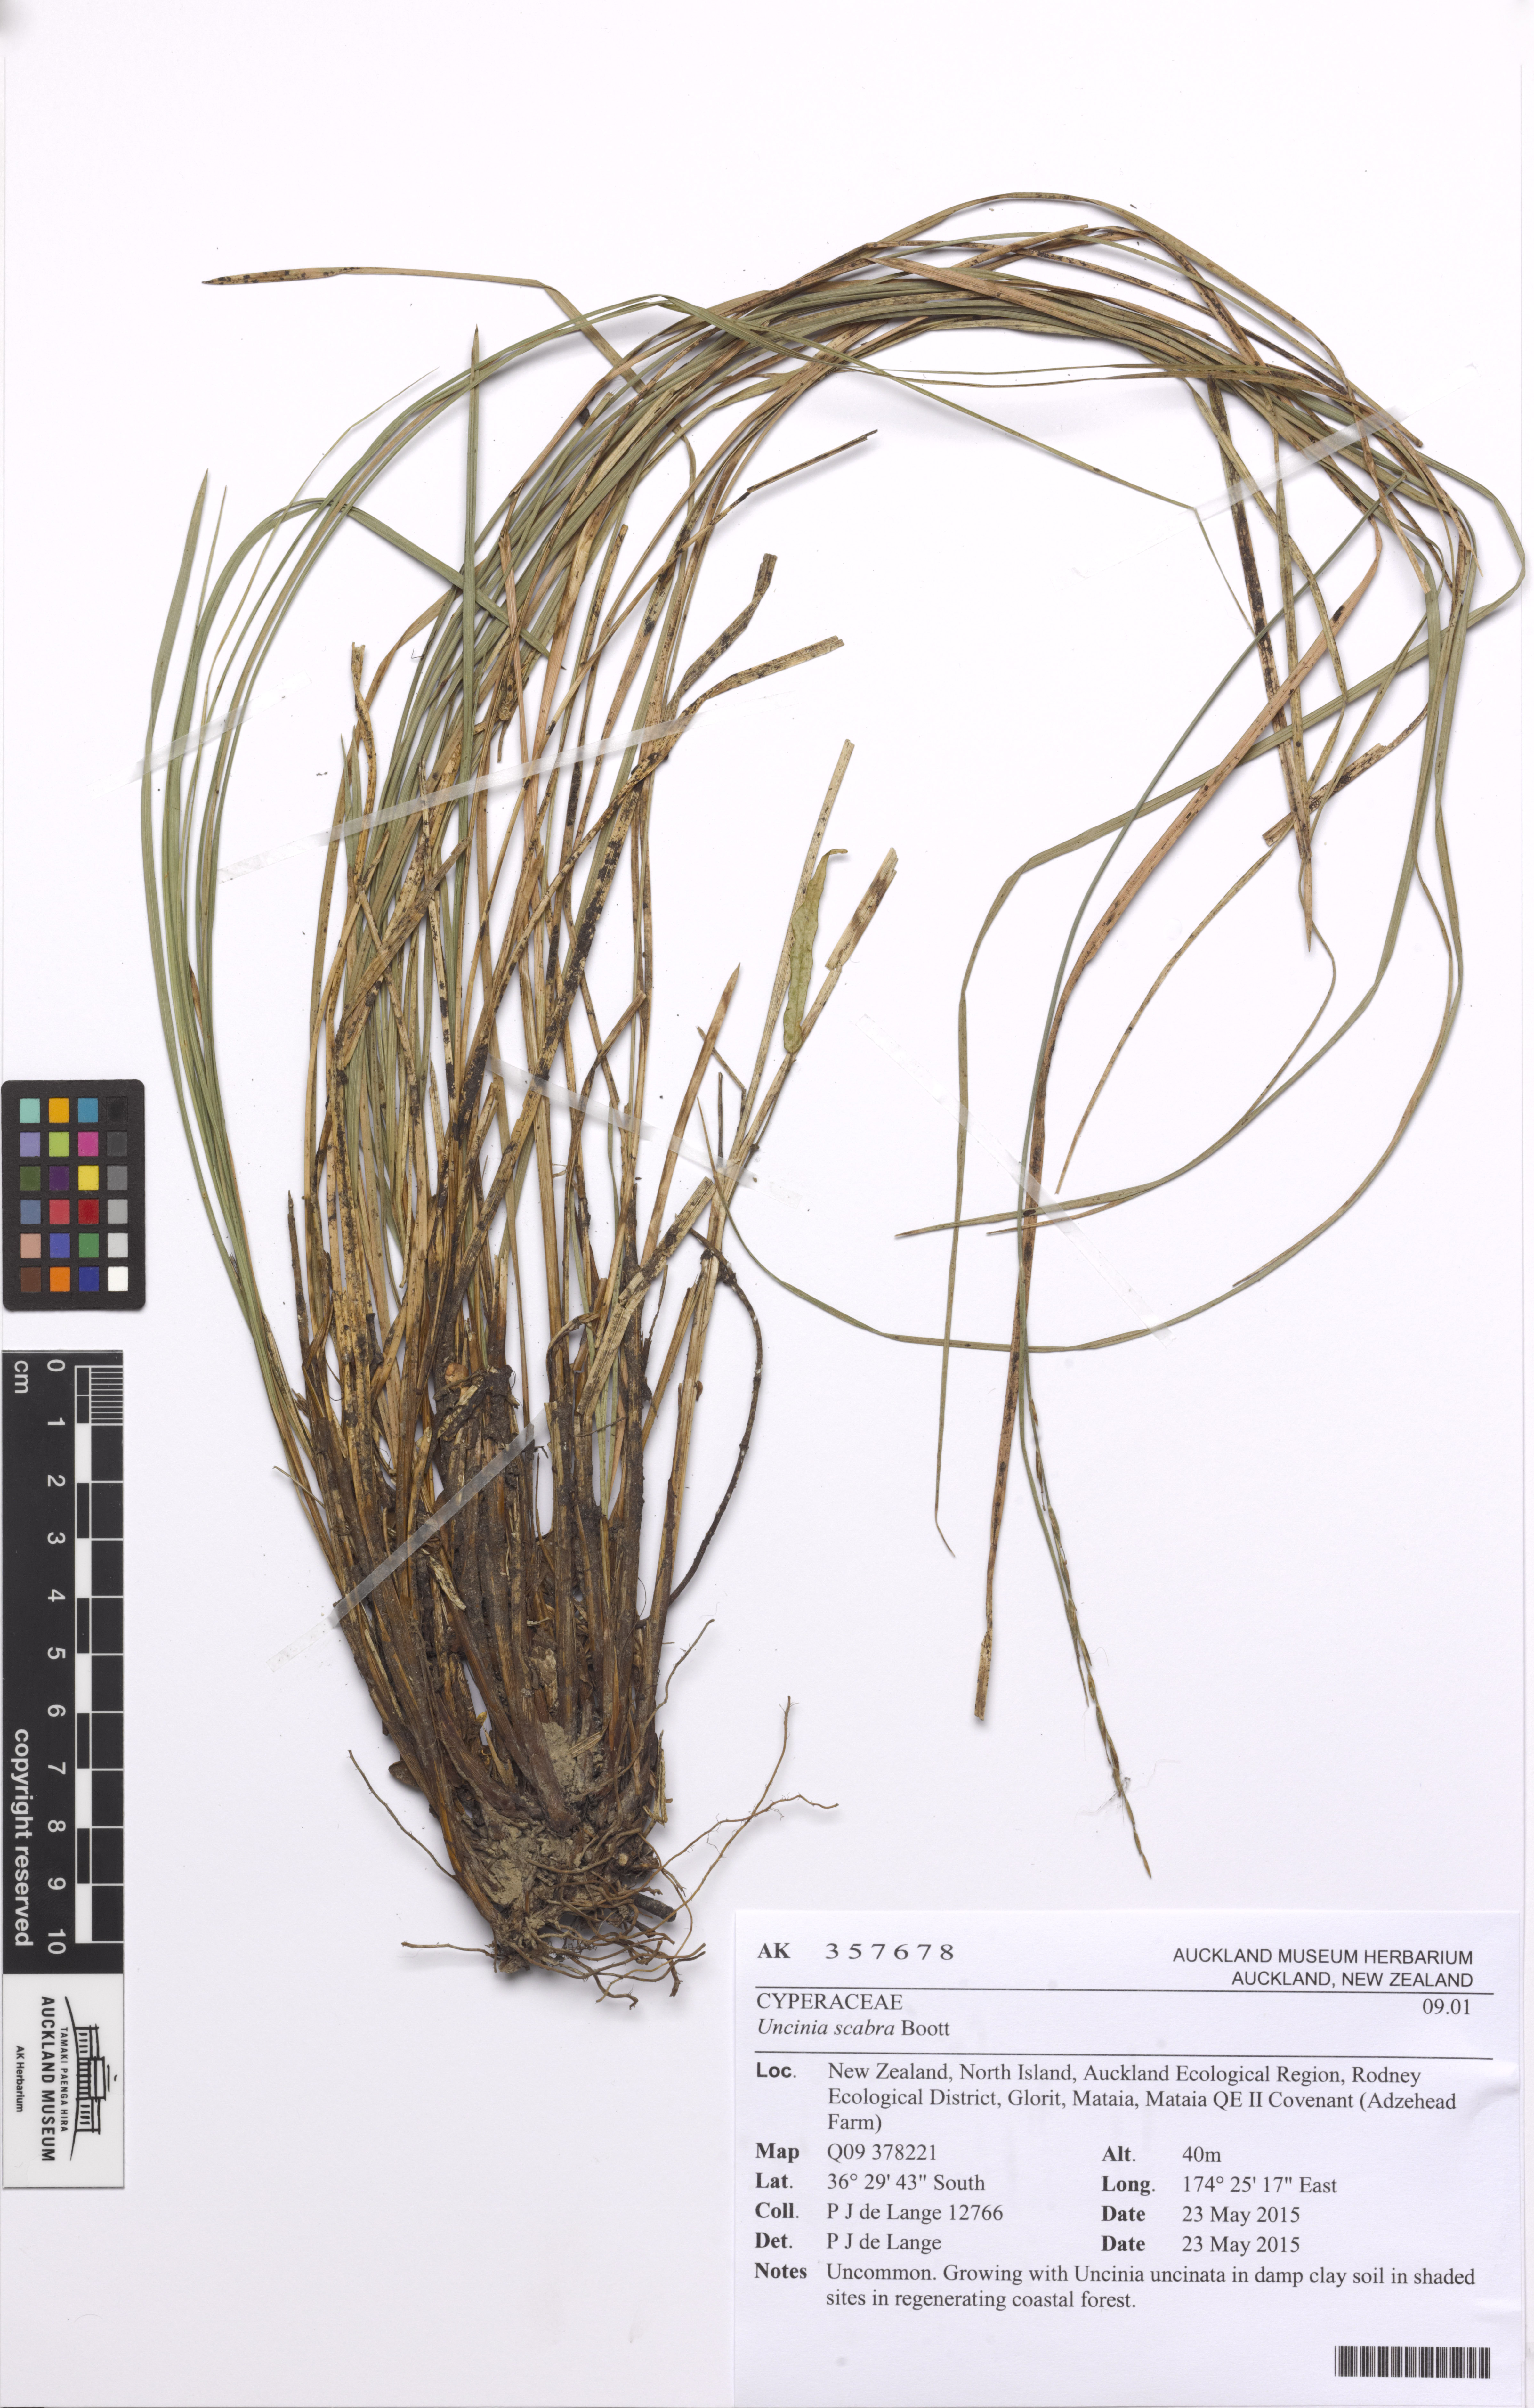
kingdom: Plantae
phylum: Tracheophyta
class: Liliopsida
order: Poales
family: Cyperaceae
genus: Carex
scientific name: Carex healyi
